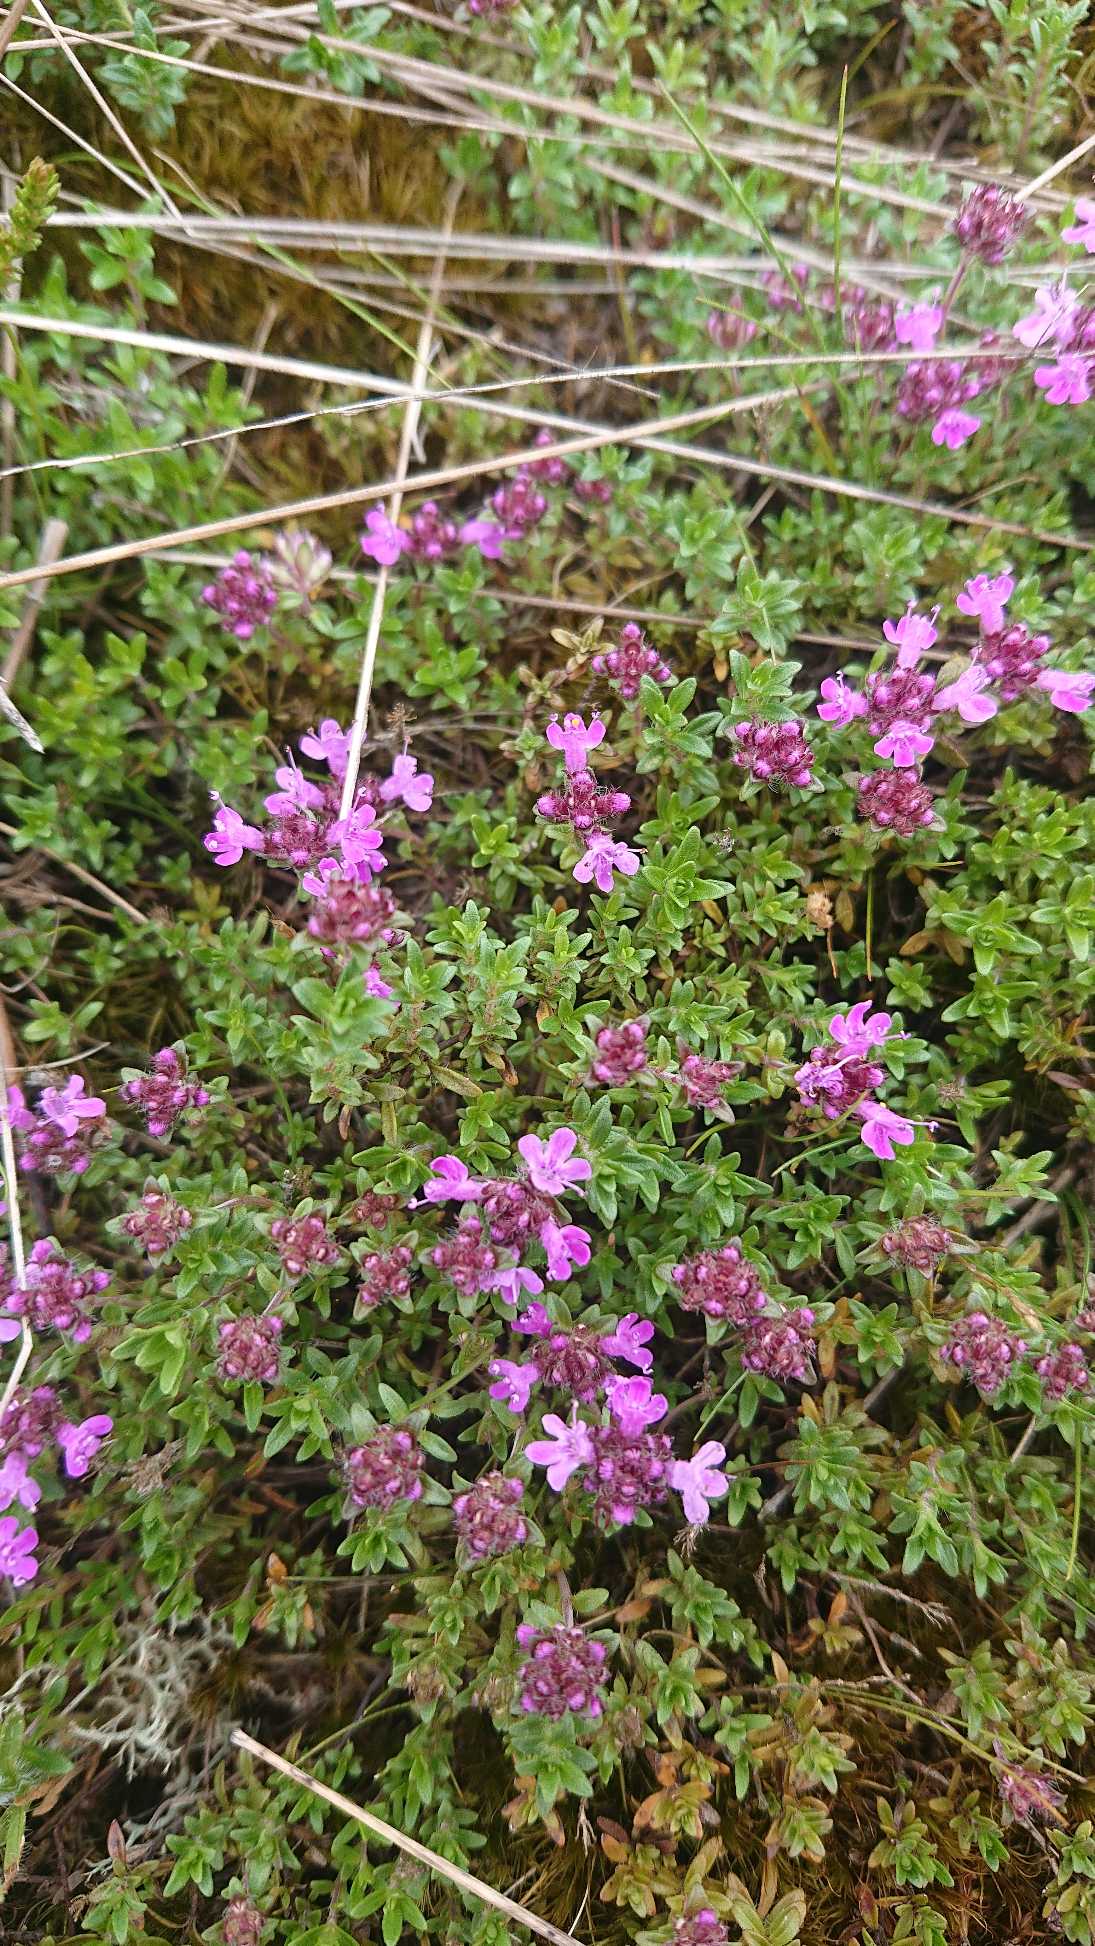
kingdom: Plantae
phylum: Tracheophyta
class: Magnoliopsida
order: Lamiales
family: Lamiaceae
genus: Thymus
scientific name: Thymus serpyllum
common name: Smalbladet timian
